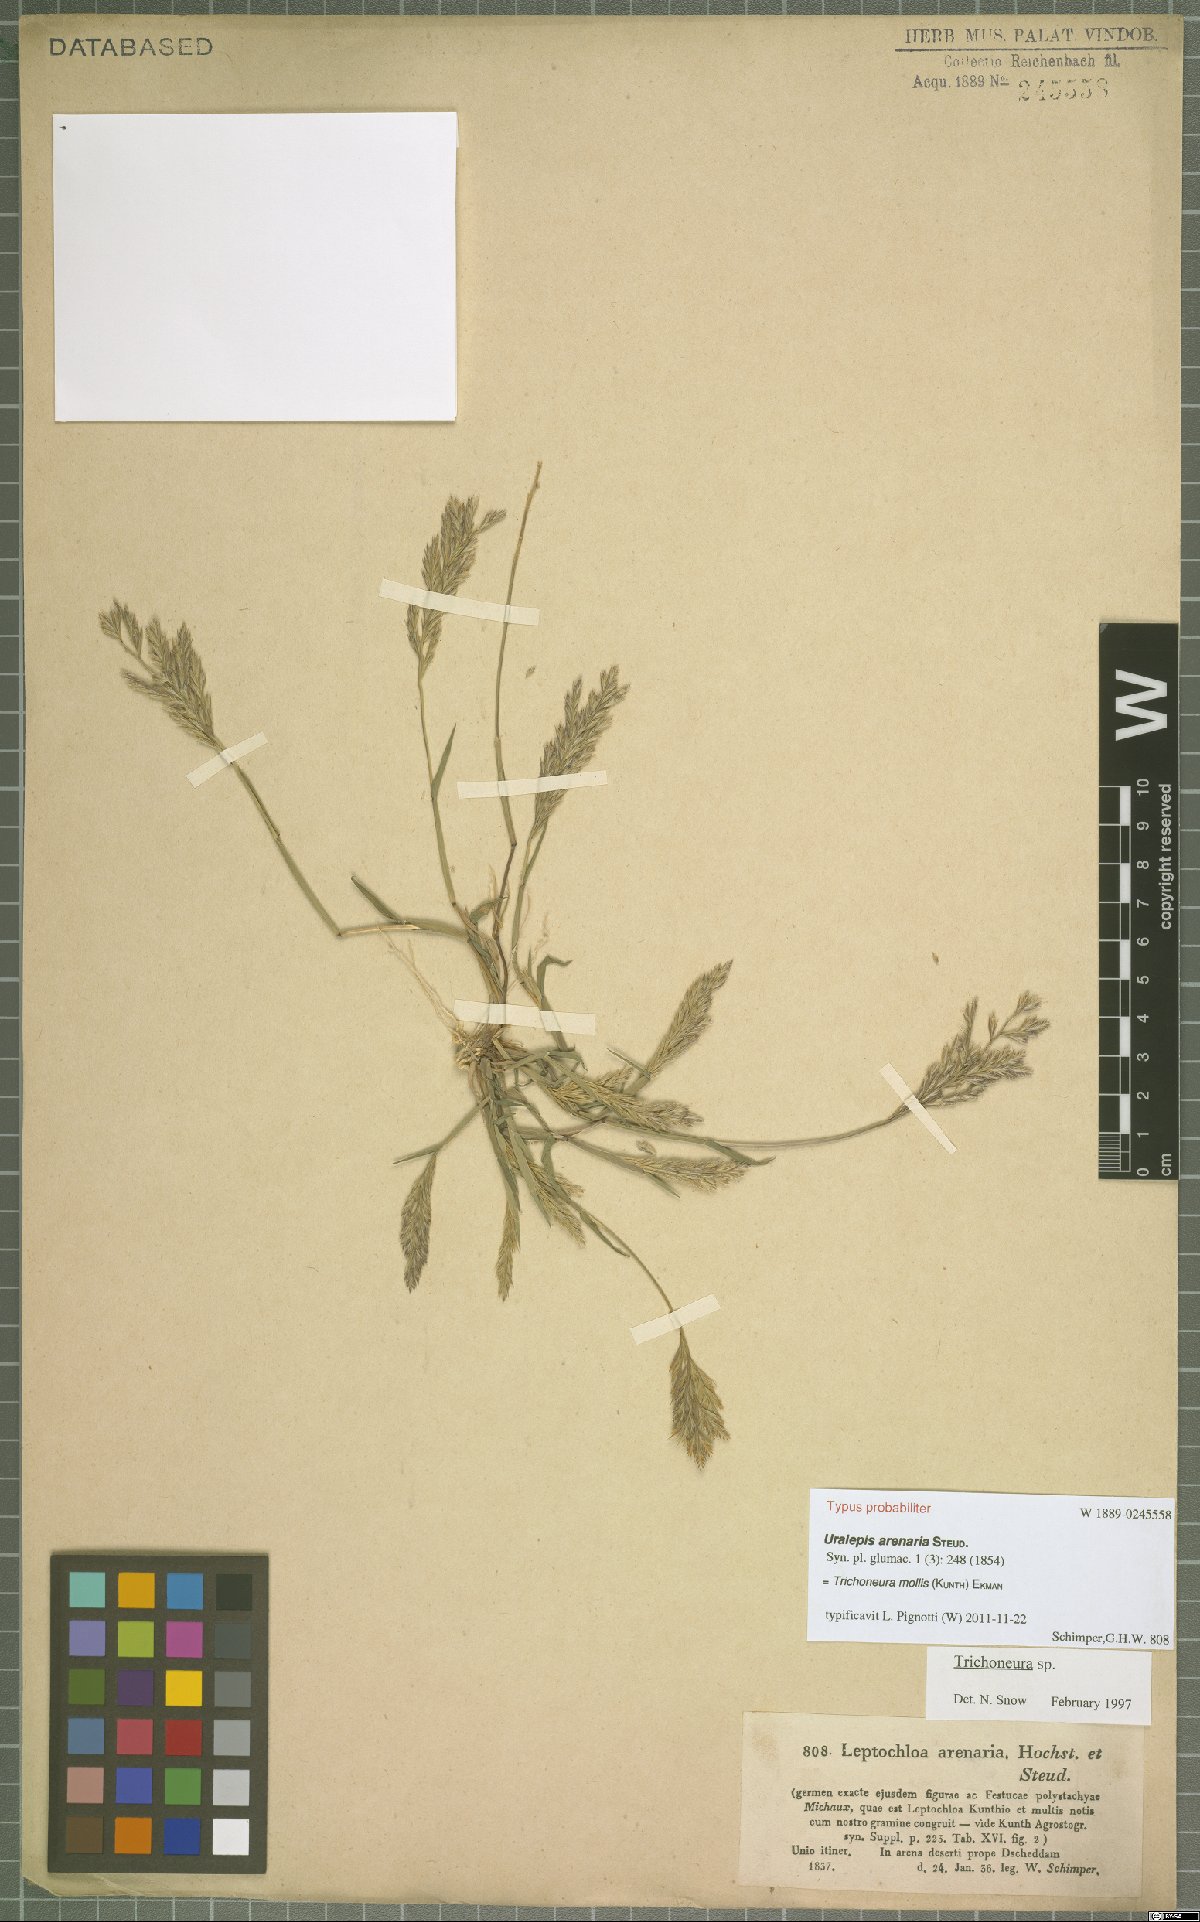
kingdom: Plantae
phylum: Tracheophyta
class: Liliopsida
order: Poales
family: Poaceae
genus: Trichoneura
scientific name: Trichoneura mollis
